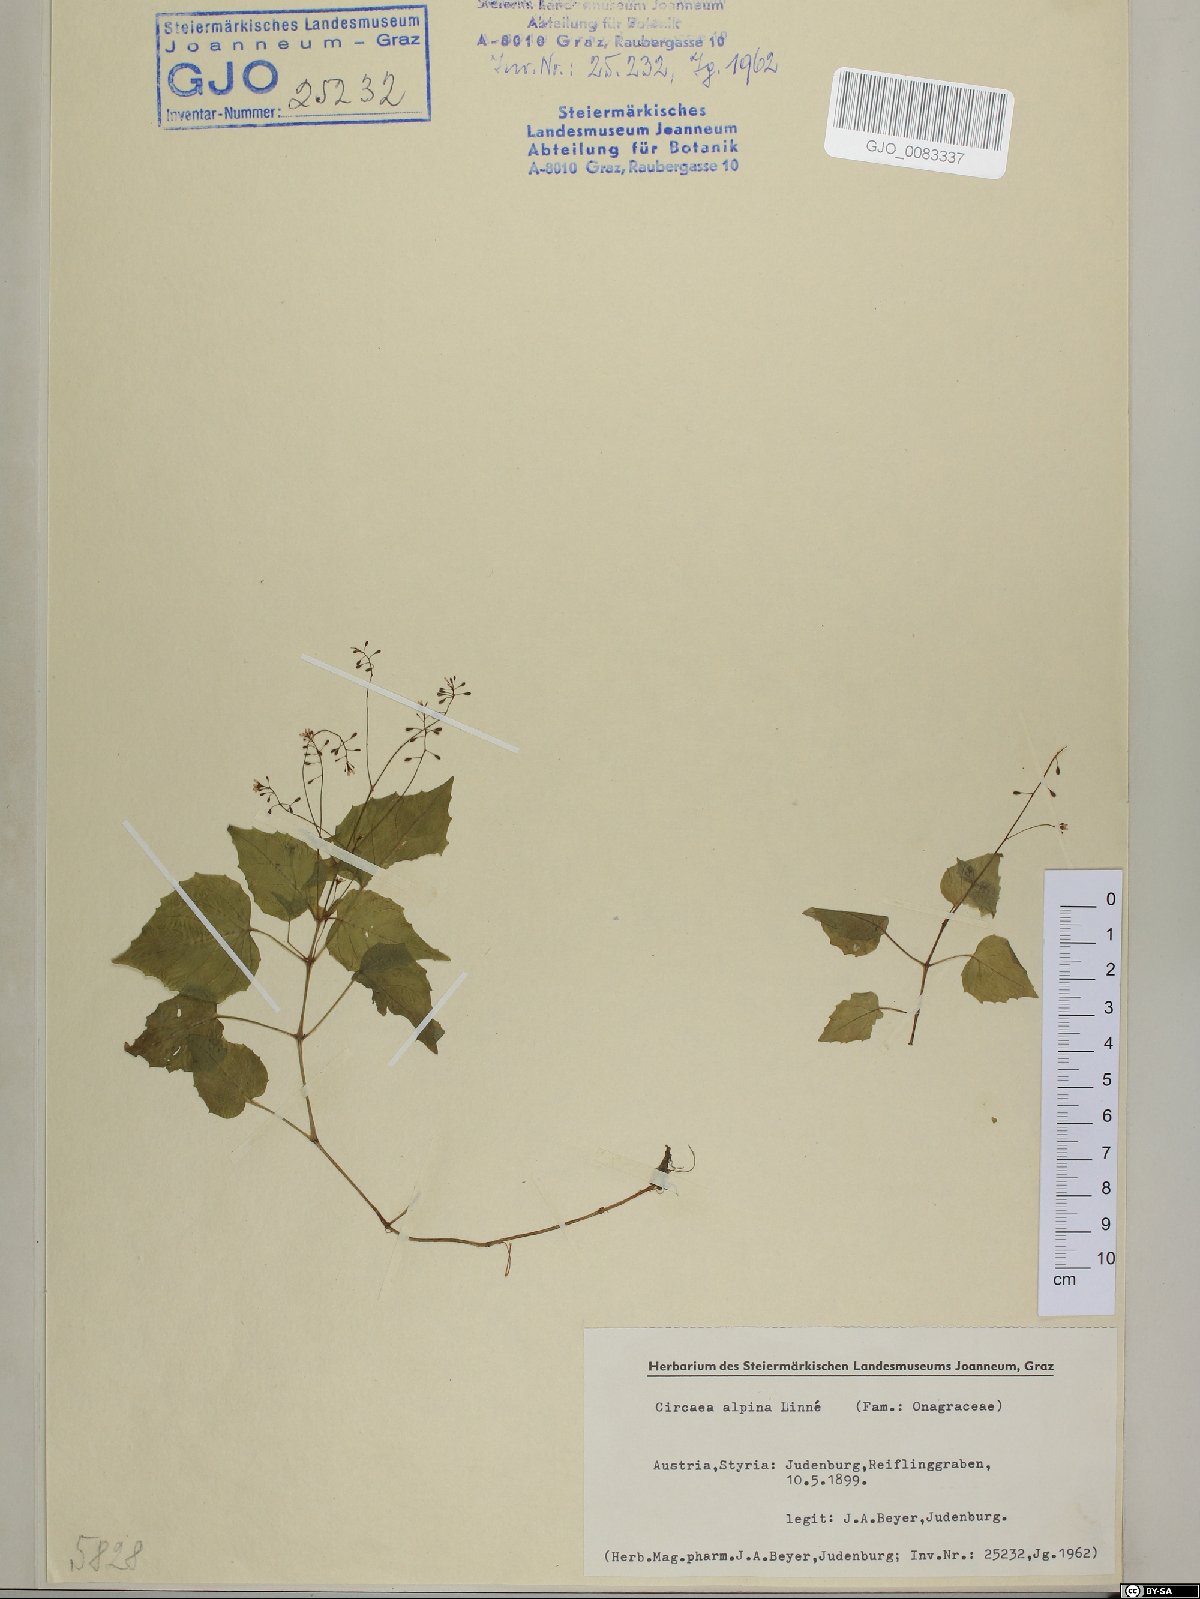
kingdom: Plantae
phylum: Tracheophyta
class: Magnoliopsida
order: Myrtales
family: Onagraceae
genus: Circaea
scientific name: Circaea alpina
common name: Alpine enchanter's-nightshade
